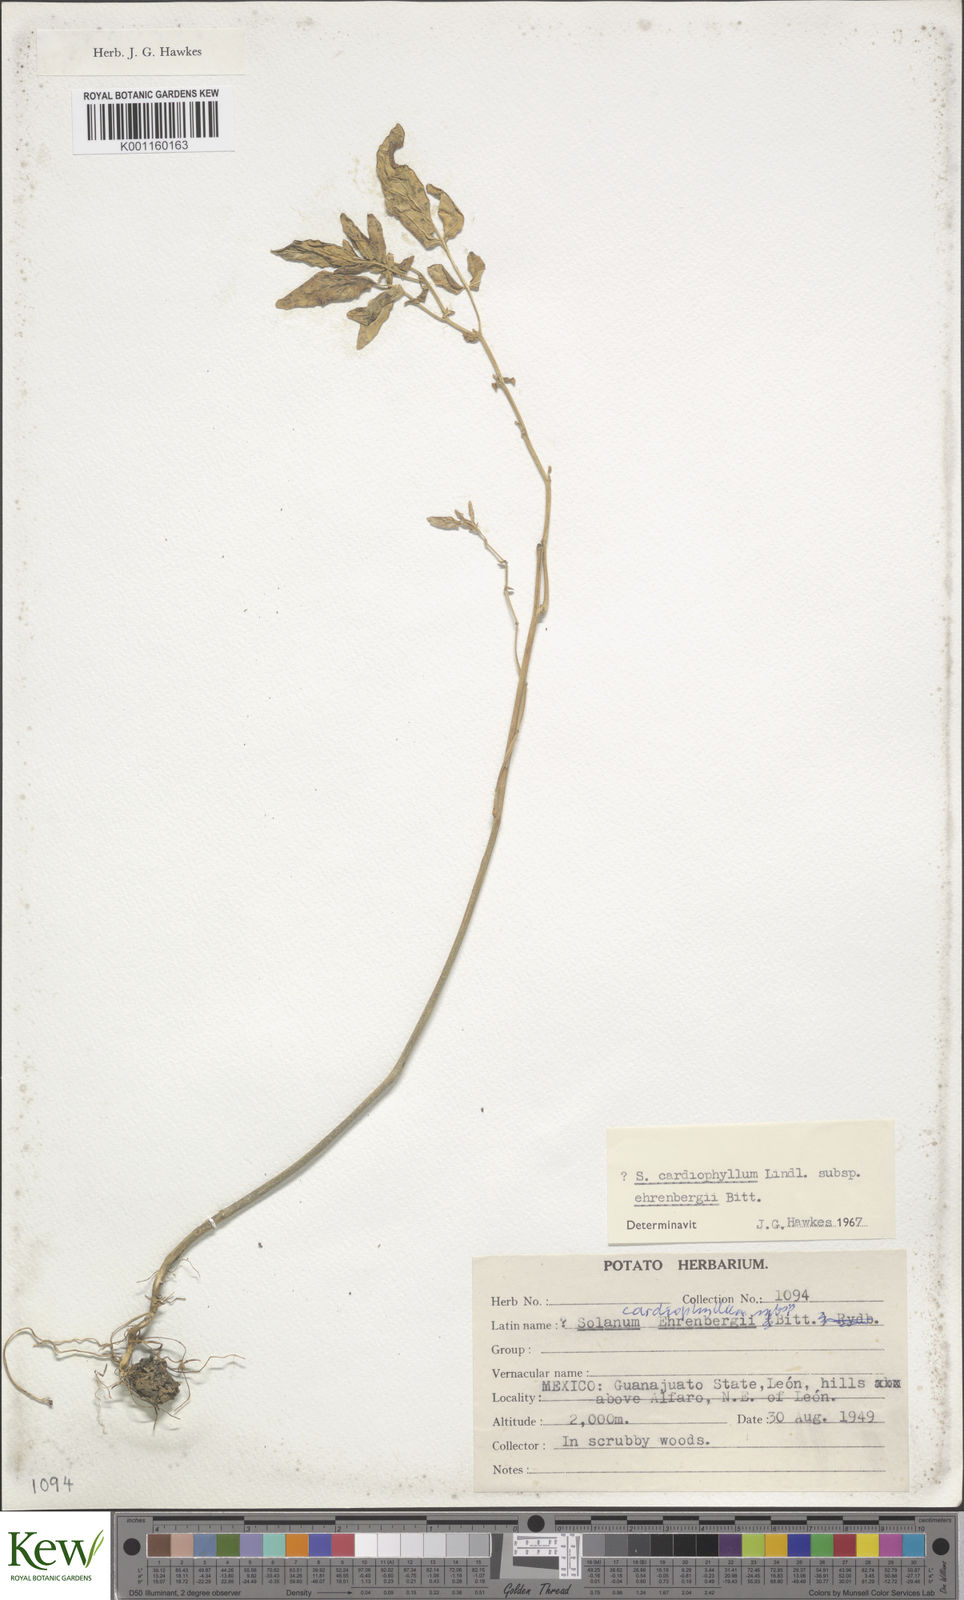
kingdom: Plantae
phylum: Tracheophyta
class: Magnoliopsida
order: Solanales
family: Solanaceae
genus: Solanum
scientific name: Solanum cardiophyllum
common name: Heartleaf horsenettle
